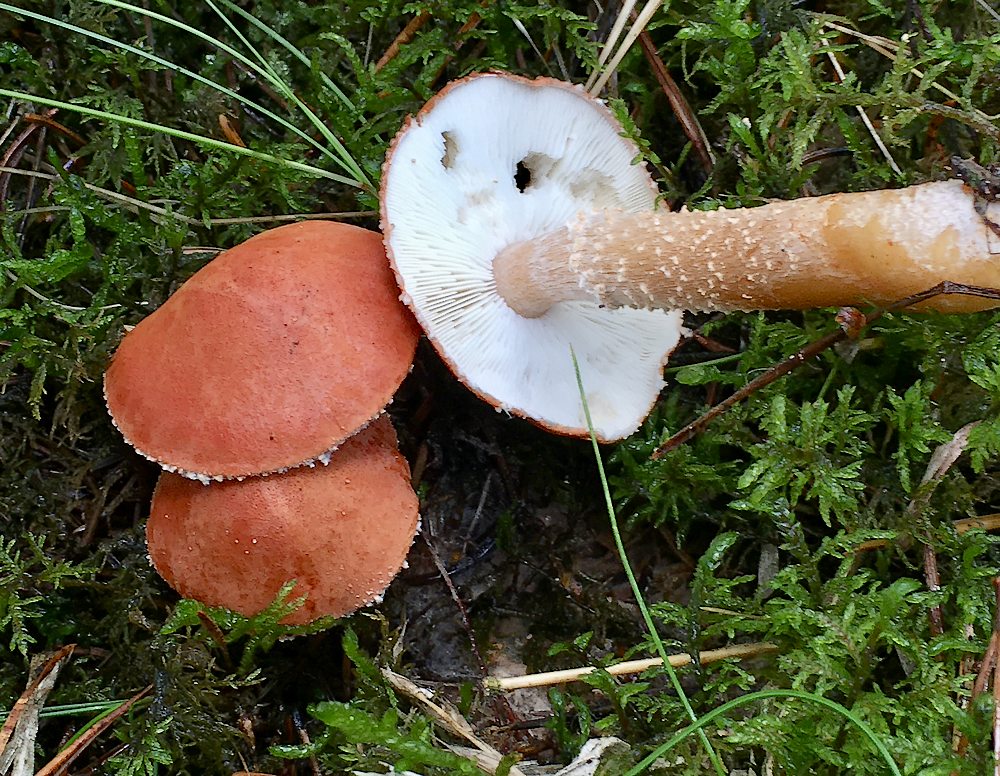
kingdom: Fungi
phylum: Basidiomycota
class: Agaricomycetes
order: Agaricales
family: Agaricaceae
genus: Cystodermella
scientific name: Cystodermella cinnabarina
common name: cinnober-grynhat
